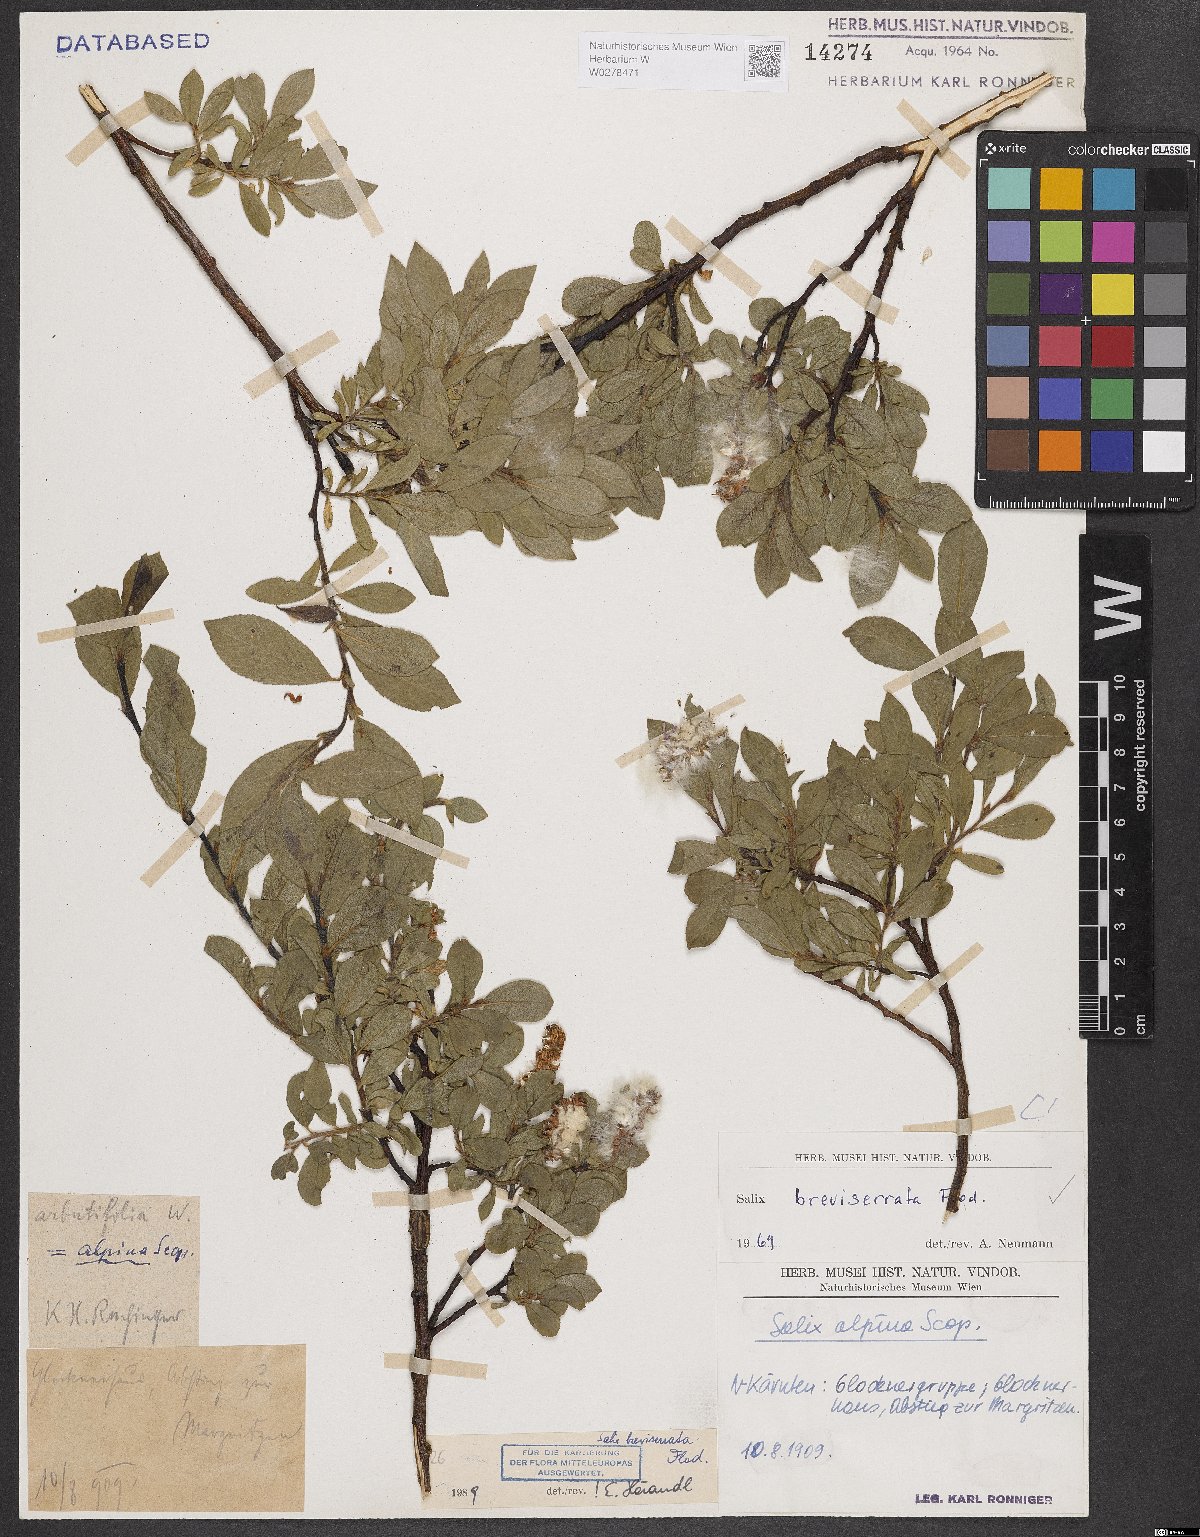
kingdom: Plantae
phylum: Tracheophyta
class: Magnoliopsida
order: Malpighiales
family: Salicaceae
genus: Salix
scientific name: Salix breviserrata
